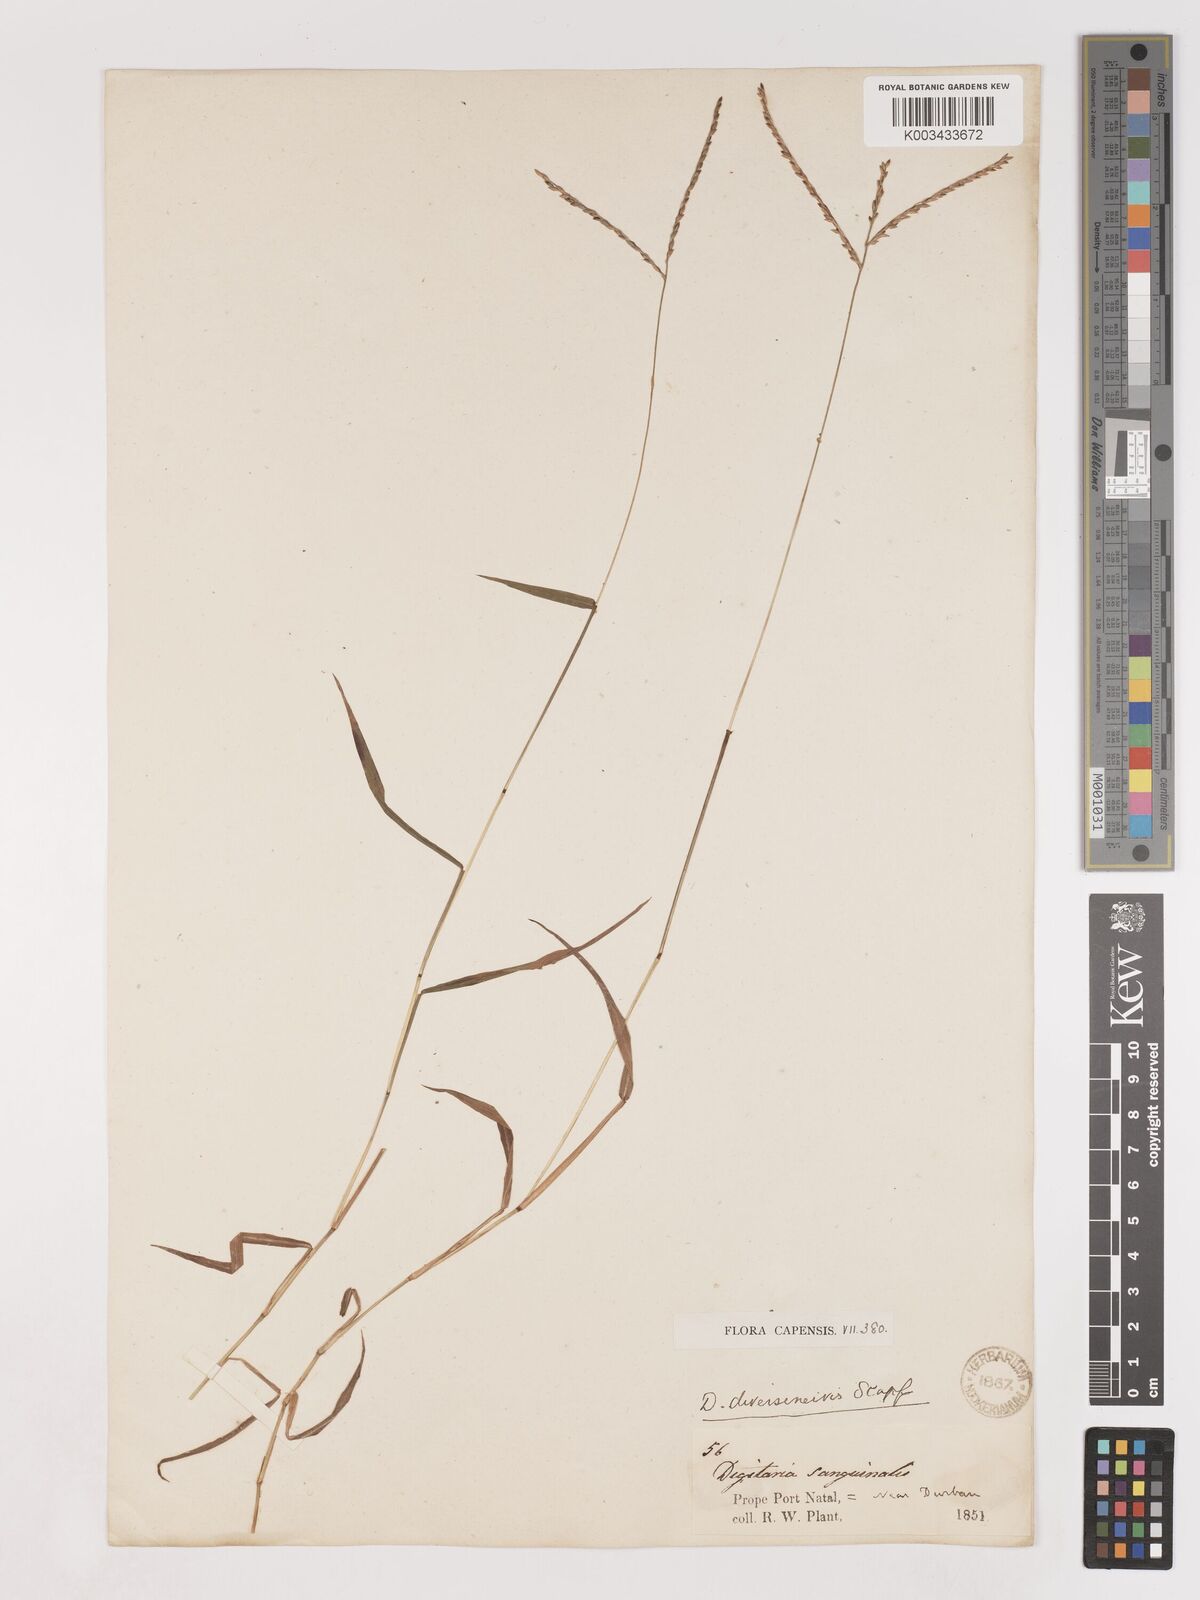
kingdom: Plantae
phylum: Tracheophyta
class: Liliopsida
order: Poales
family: Poaceae
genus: Digitaria
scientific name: Digitaria diversinervis
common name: Richmond finger grass
